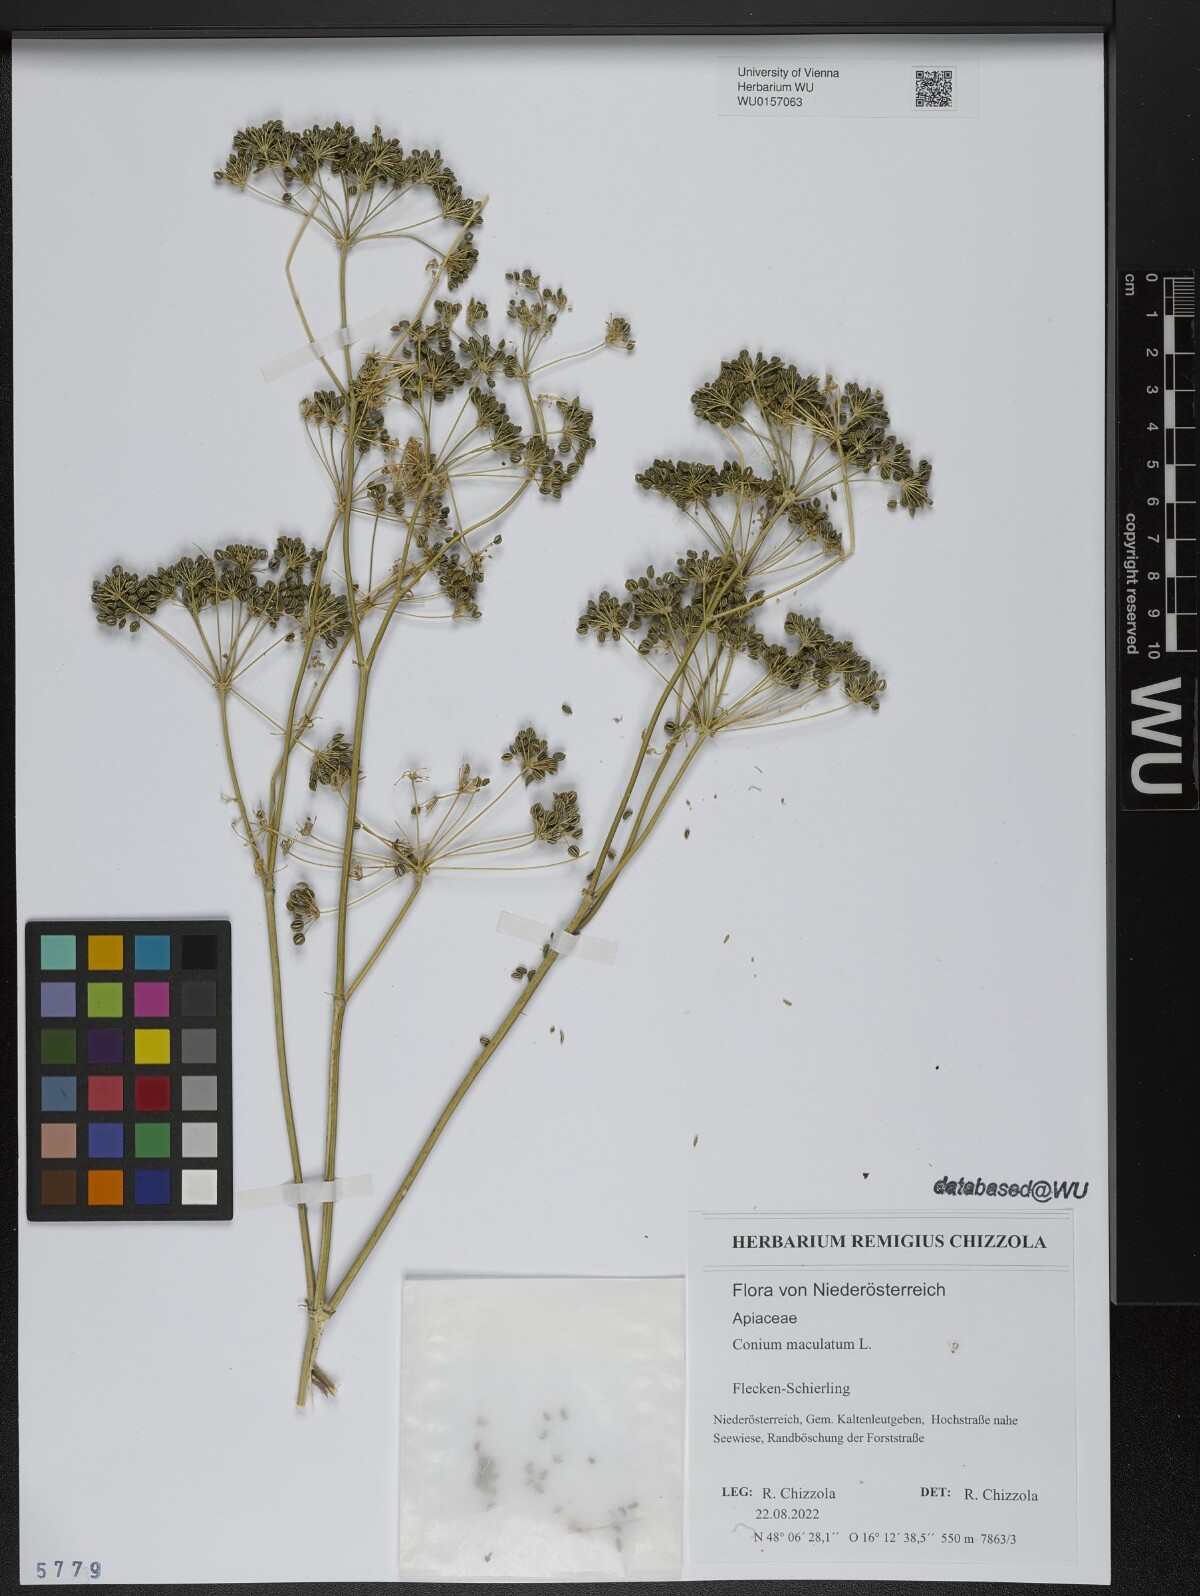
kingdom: Plantae
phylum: Tracheophyta
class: Magnoliopsida
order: Apiales
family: Apiaceae
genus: Conium
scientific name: Conium maculatum
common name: Hemlock
